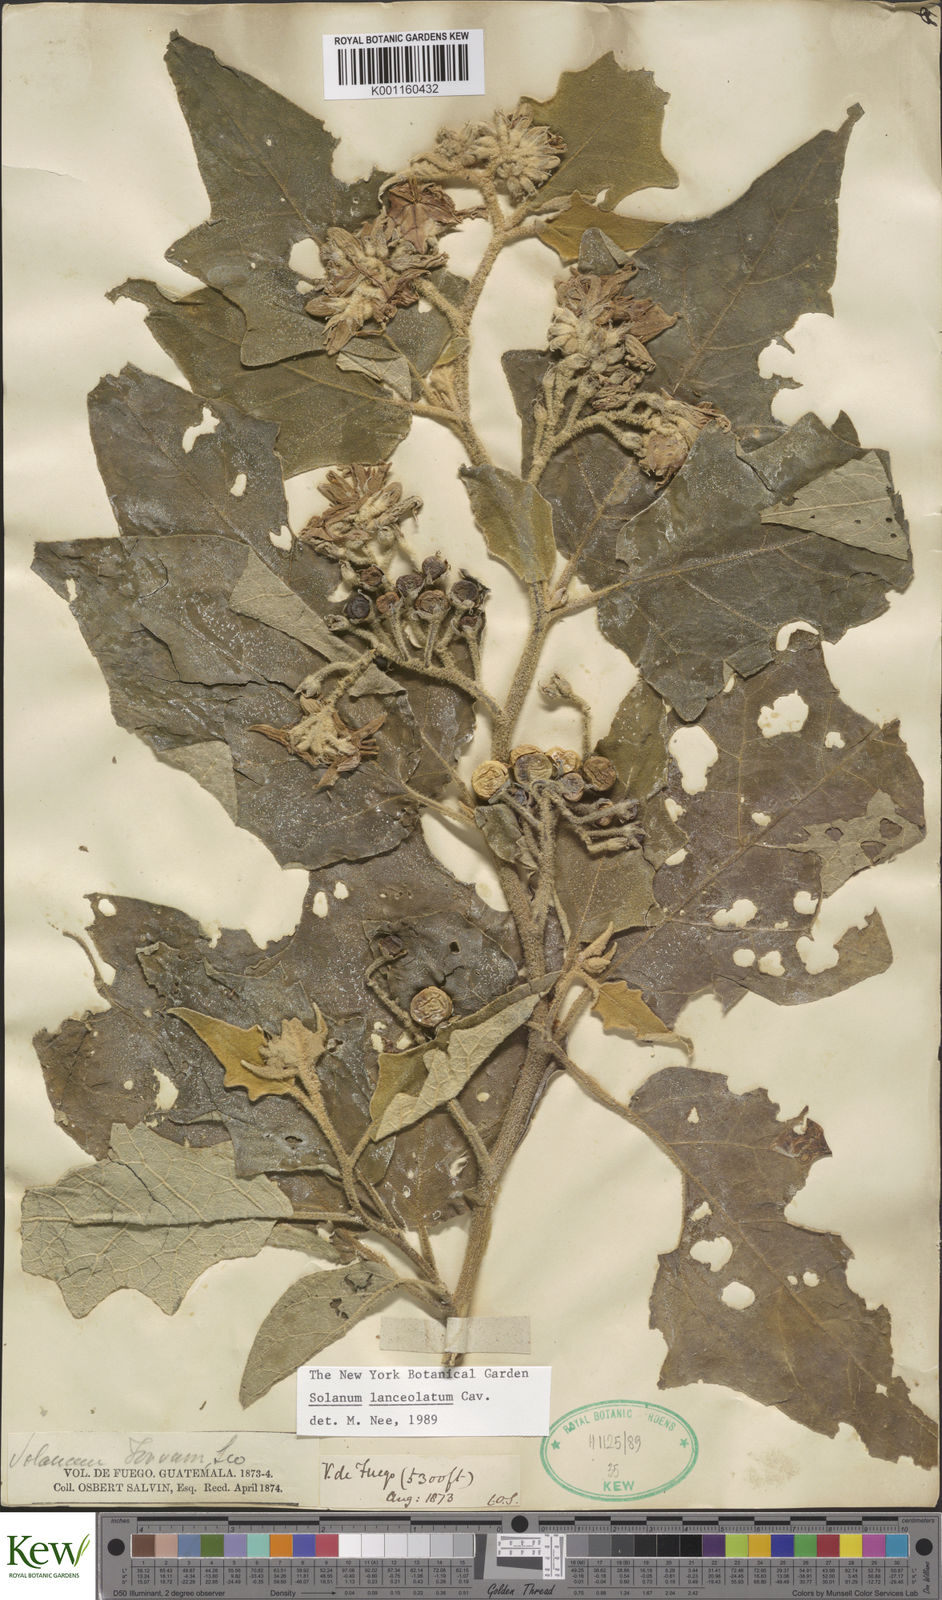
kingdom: Plantae
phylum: Tracheophyta
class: Magnoliopsida
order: Solanales
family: Solanaceae
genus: Solanum
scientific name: Solanum lanceolatum
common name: Orangeberry nightshade
